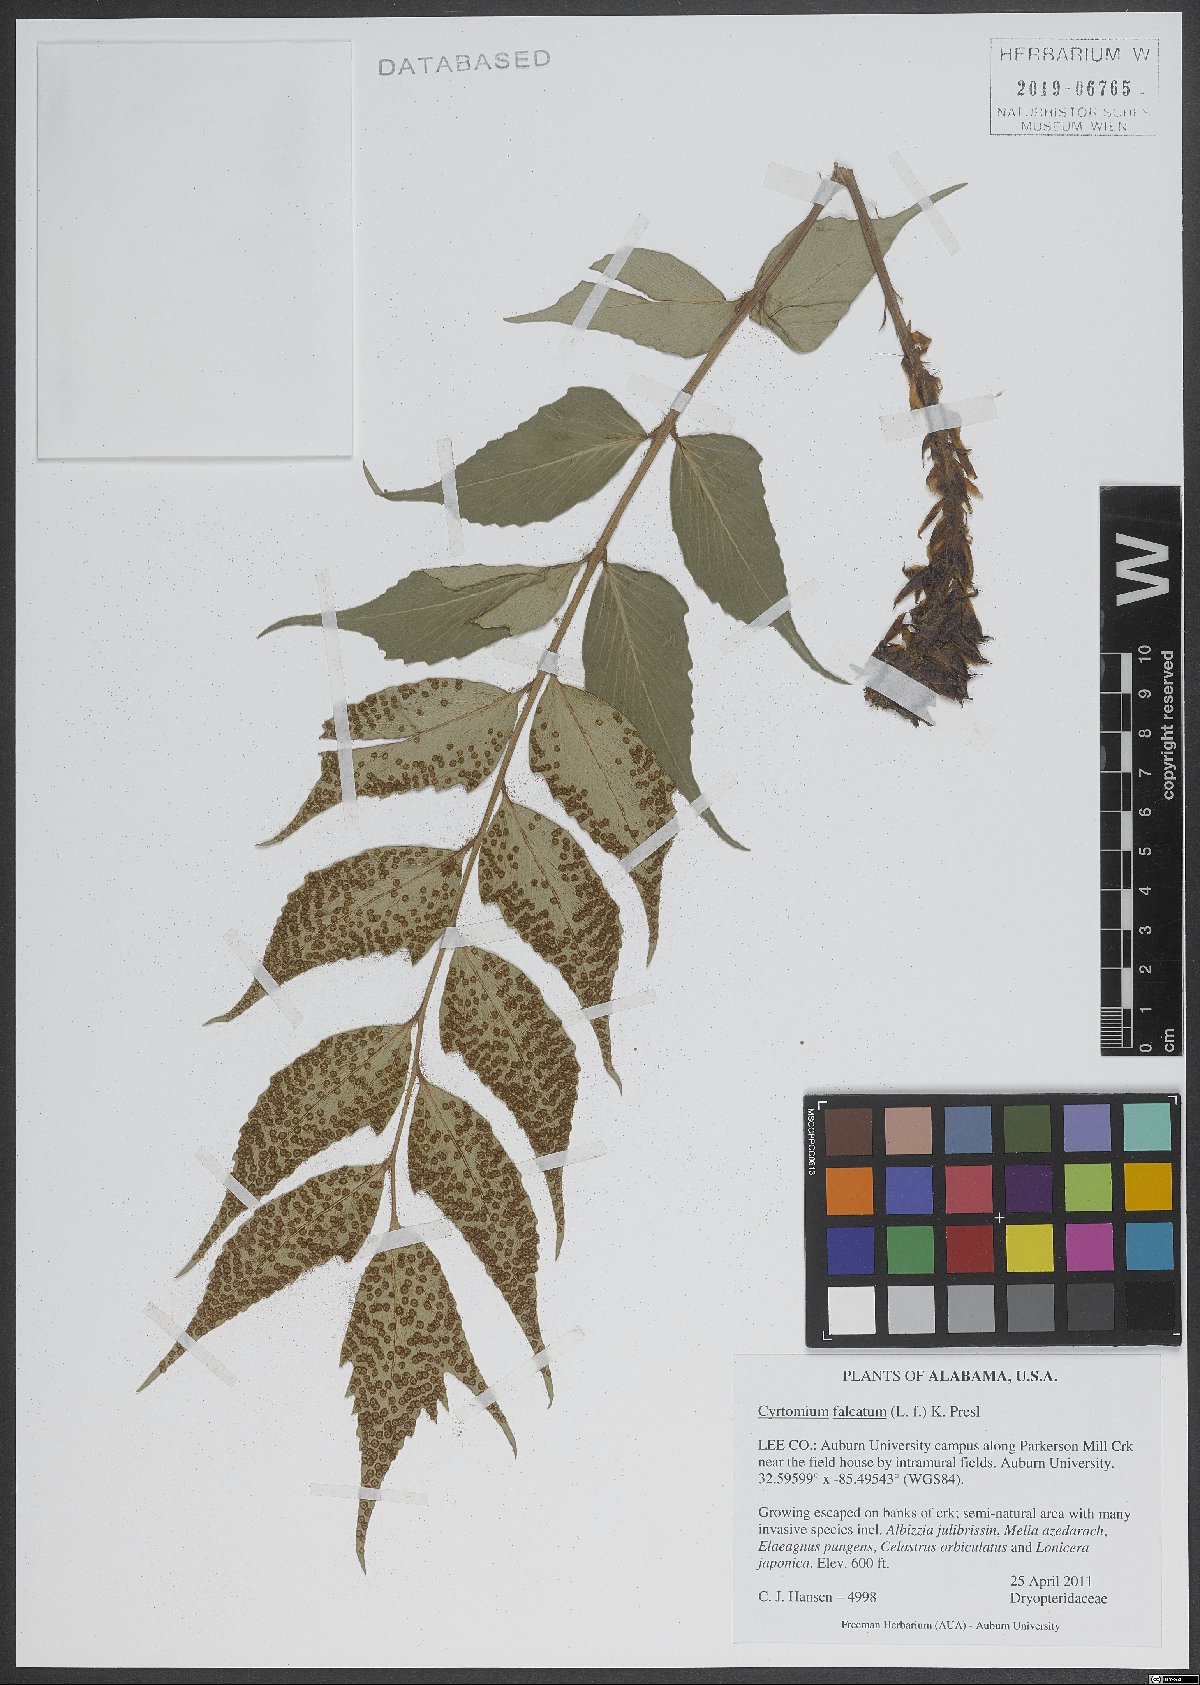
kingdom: Plantae
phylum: Tracheophyta
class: Polypodiopsida
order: Polypodiales
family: Dryopteridaceae
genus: Cyrtomium
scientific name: Cyrtomium falcatum
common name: House holly-fern
